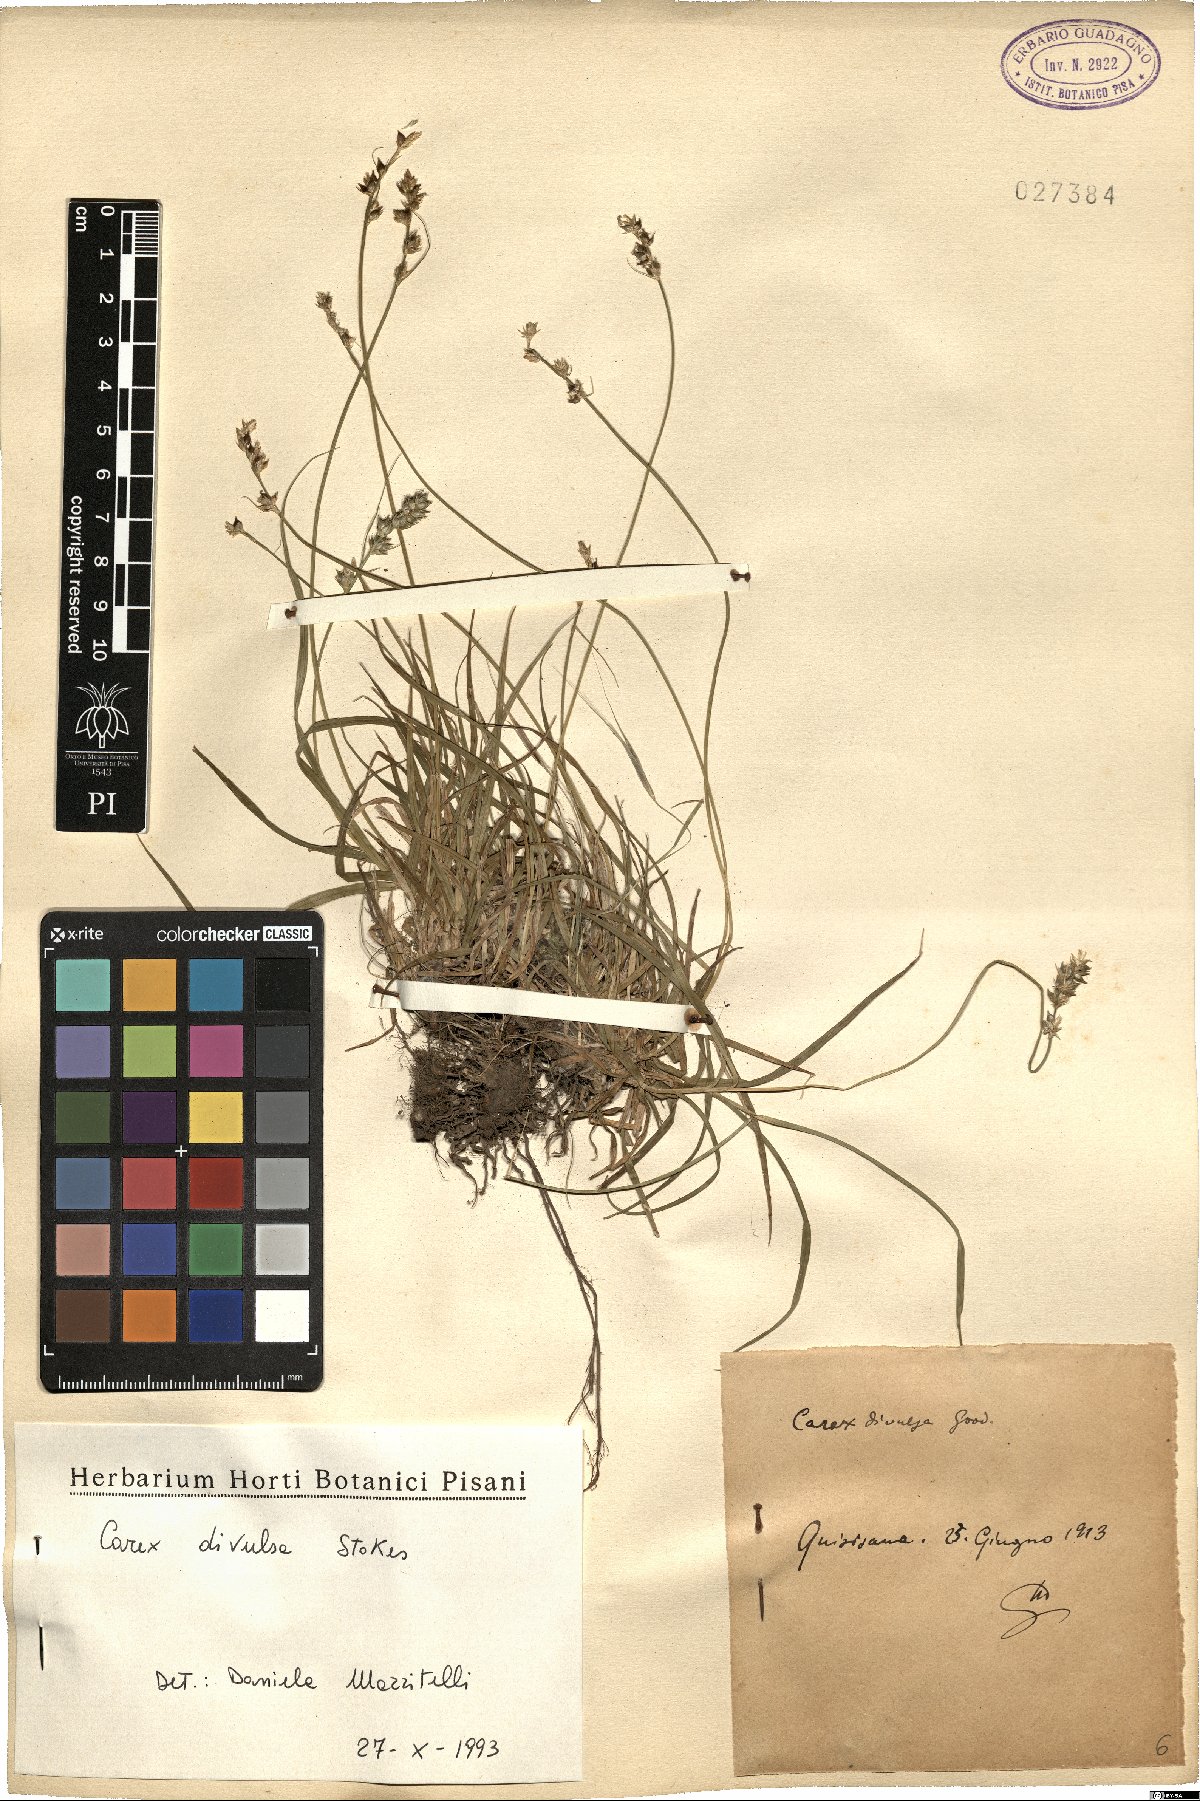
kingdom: Plantae
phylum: Tracheophyta
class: Liliopsida
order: Poales
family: Cyperaceae
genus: Carex
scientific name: Carex divulsa
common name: Grassland sedge
